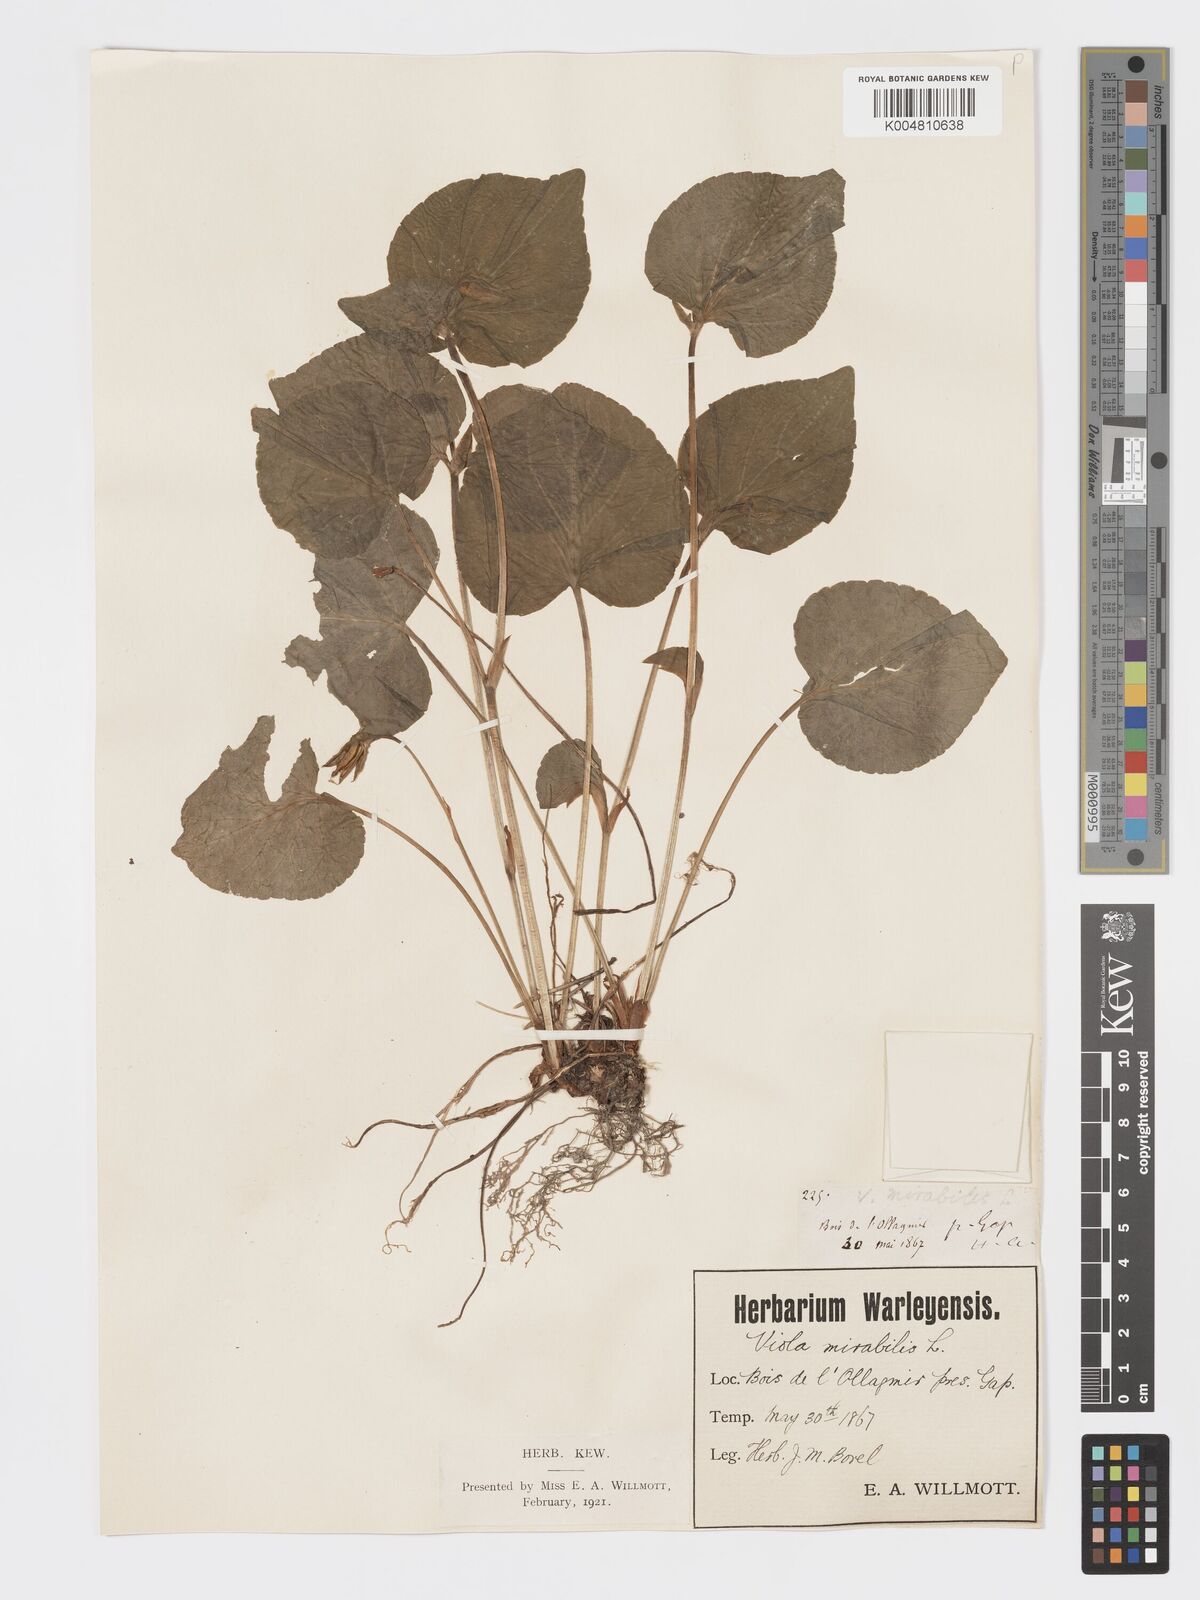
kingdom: Plantae
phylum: Tracheophyta
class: Magnoliopsida
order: Malpighiales
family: Violaceae
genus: Viola
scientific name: Viola mirabilis
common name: Wonder violet
